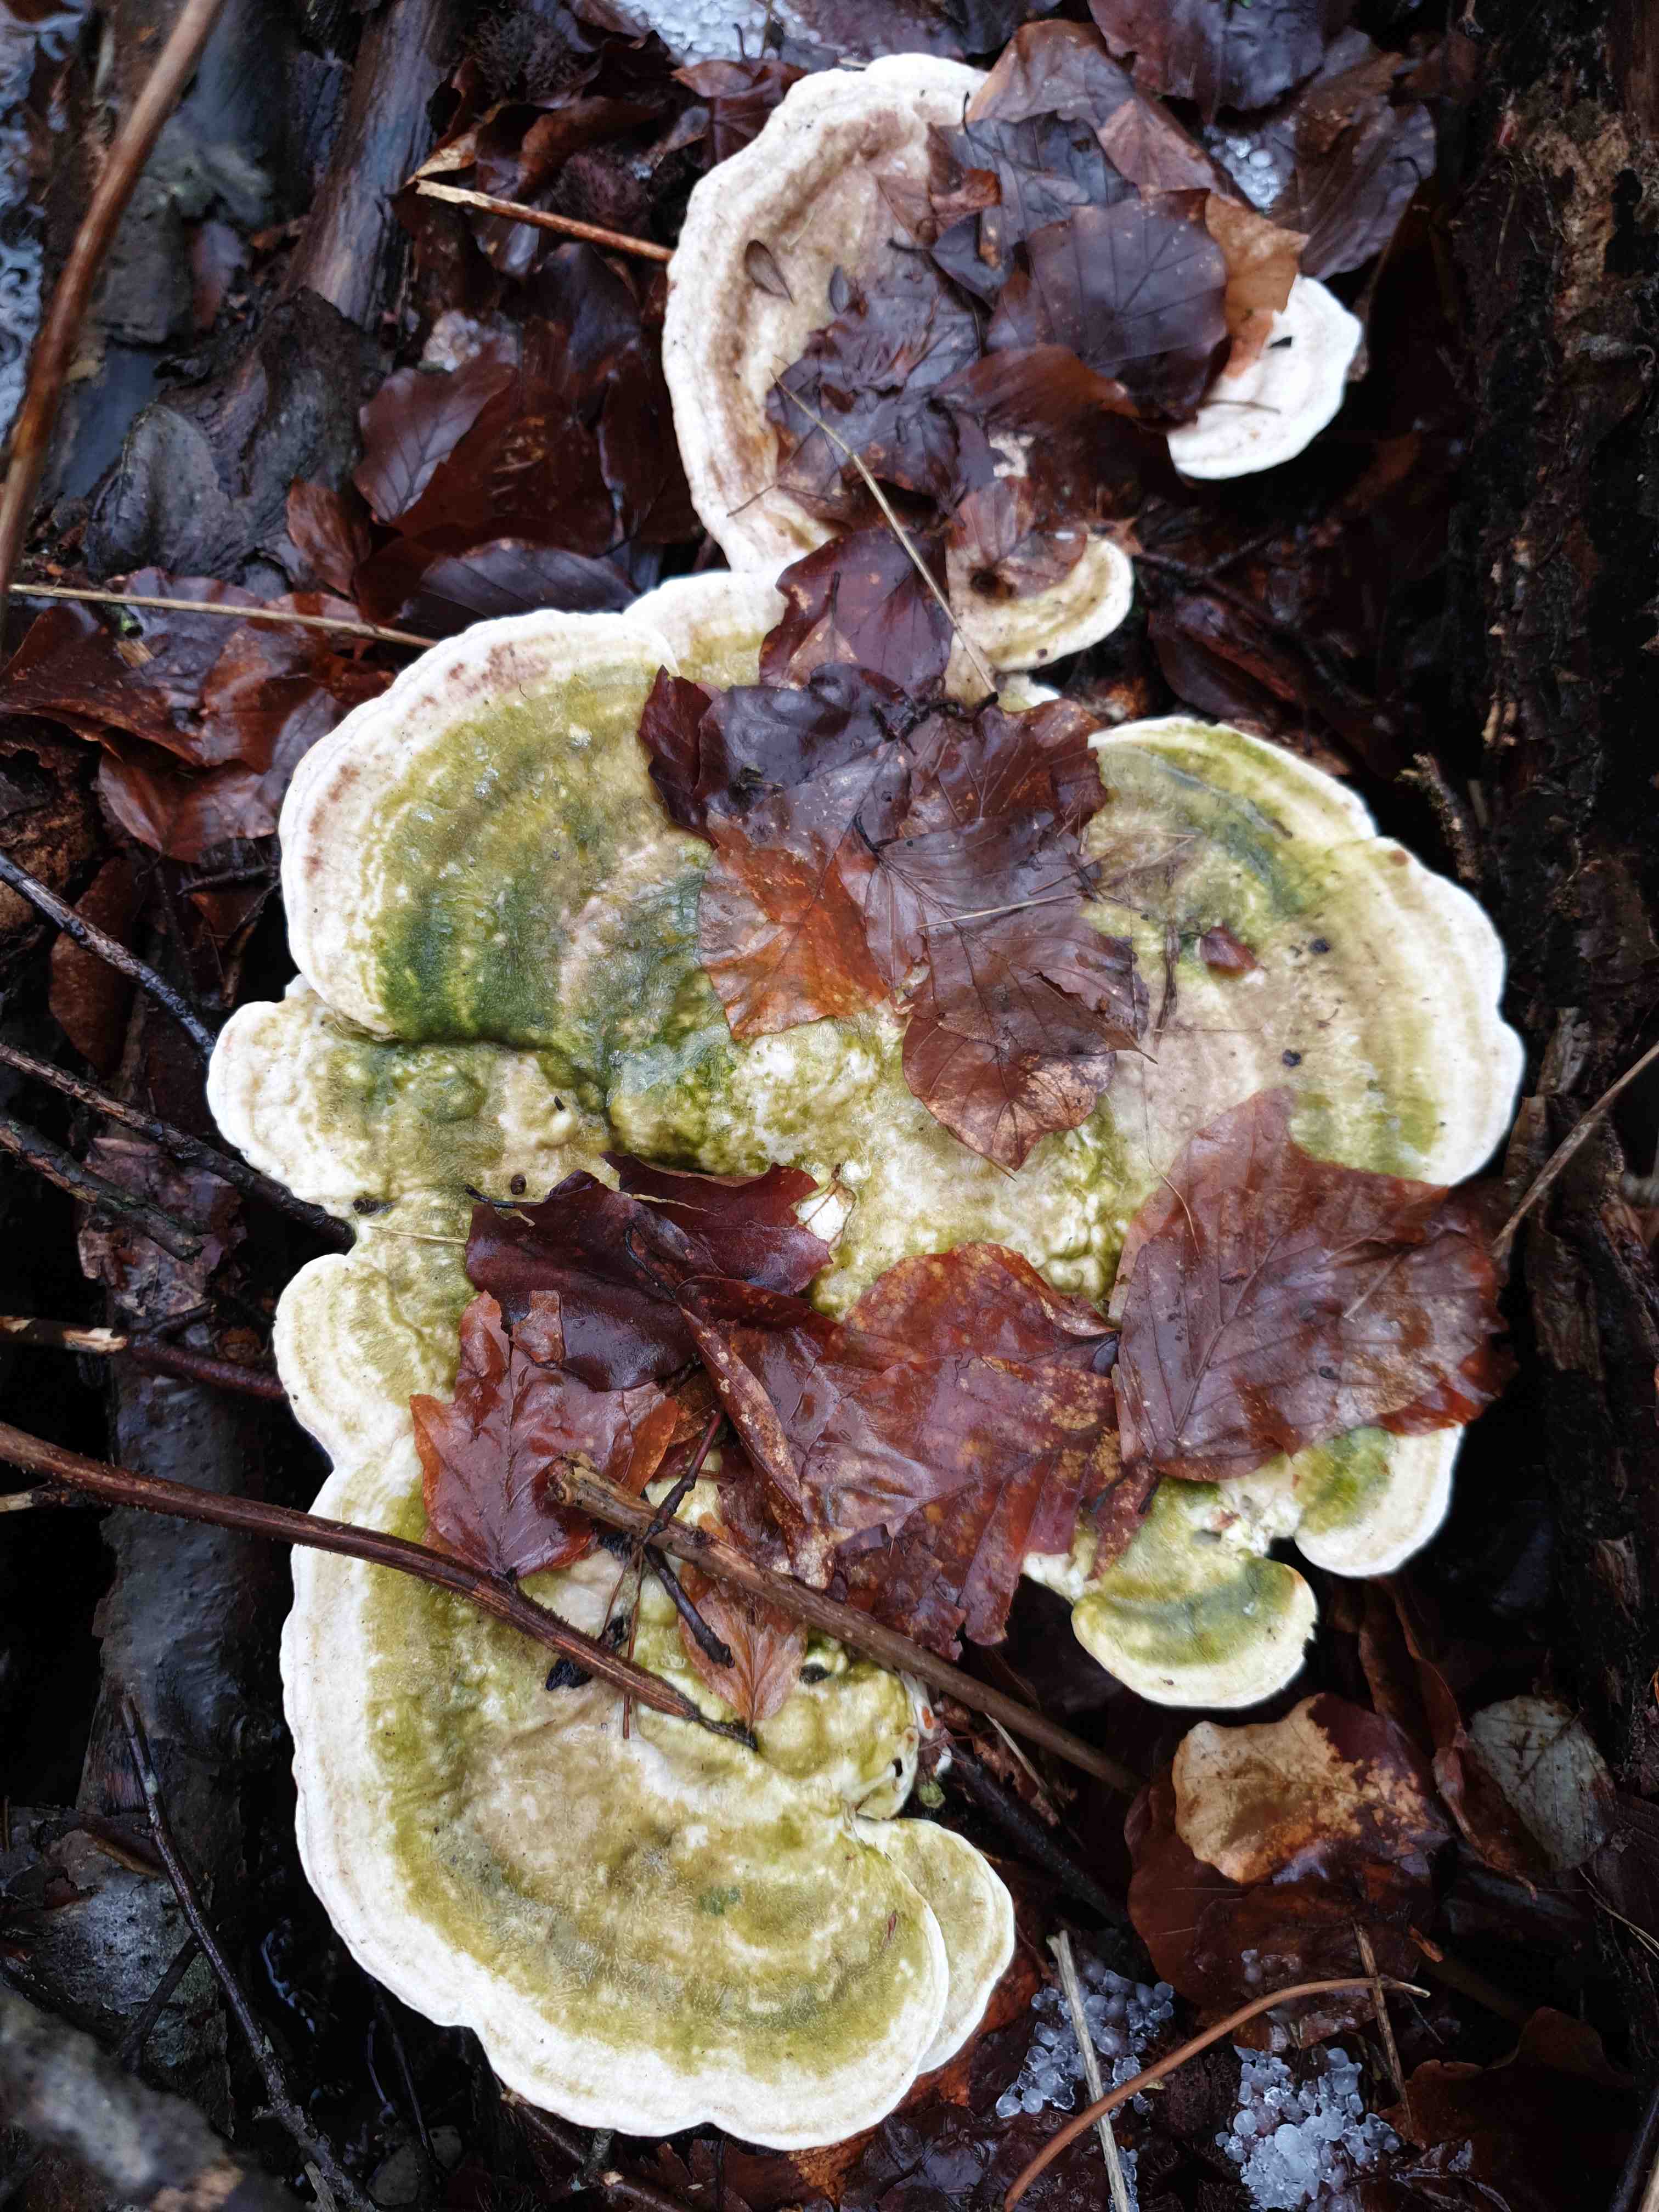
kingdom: Fungi
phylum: Basidiomycota
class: Agaricomycetes
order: Polyporales
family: Polyporaceae
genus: Trametes
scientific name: Trametes gibbosa
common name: puklet læderporesvamp
